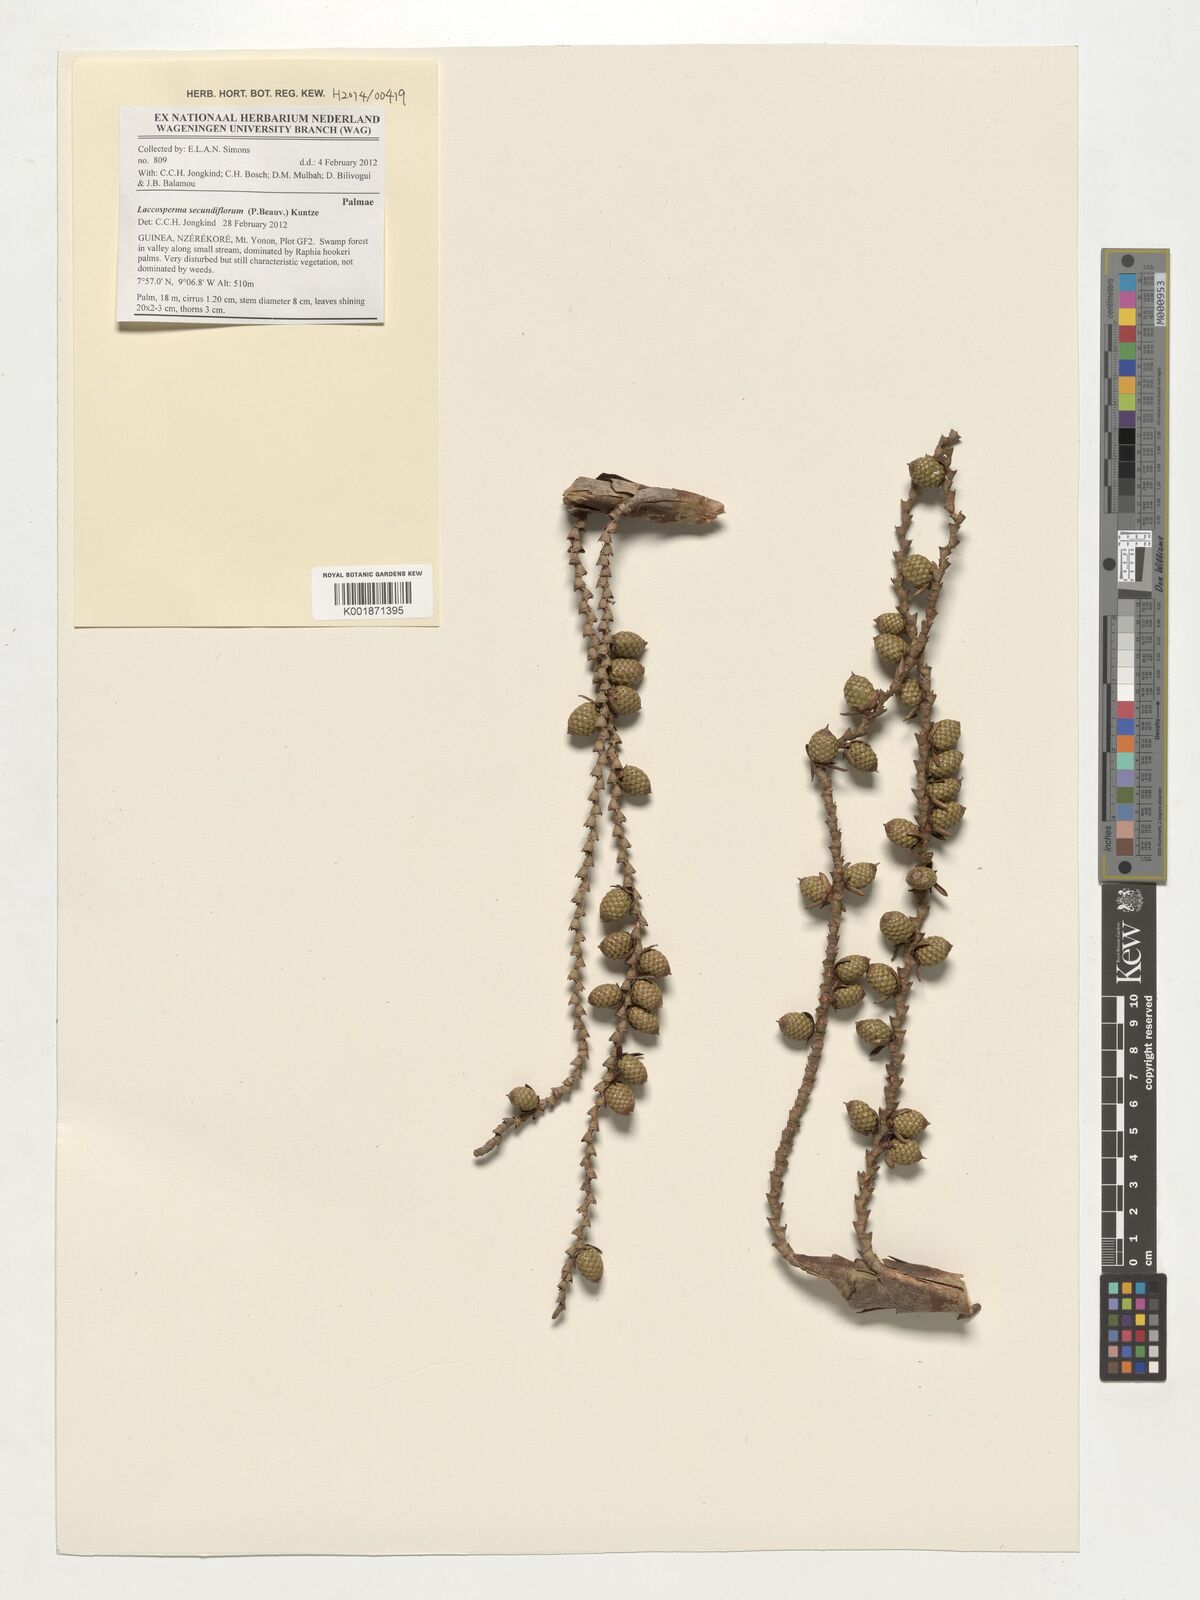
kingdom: Plantae
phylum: Tracheophyta
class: Liliopsida
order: Arecales
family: Arecaceae
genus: Laccosperma
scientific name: Laccosperma secundiflorum
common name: Rattan
